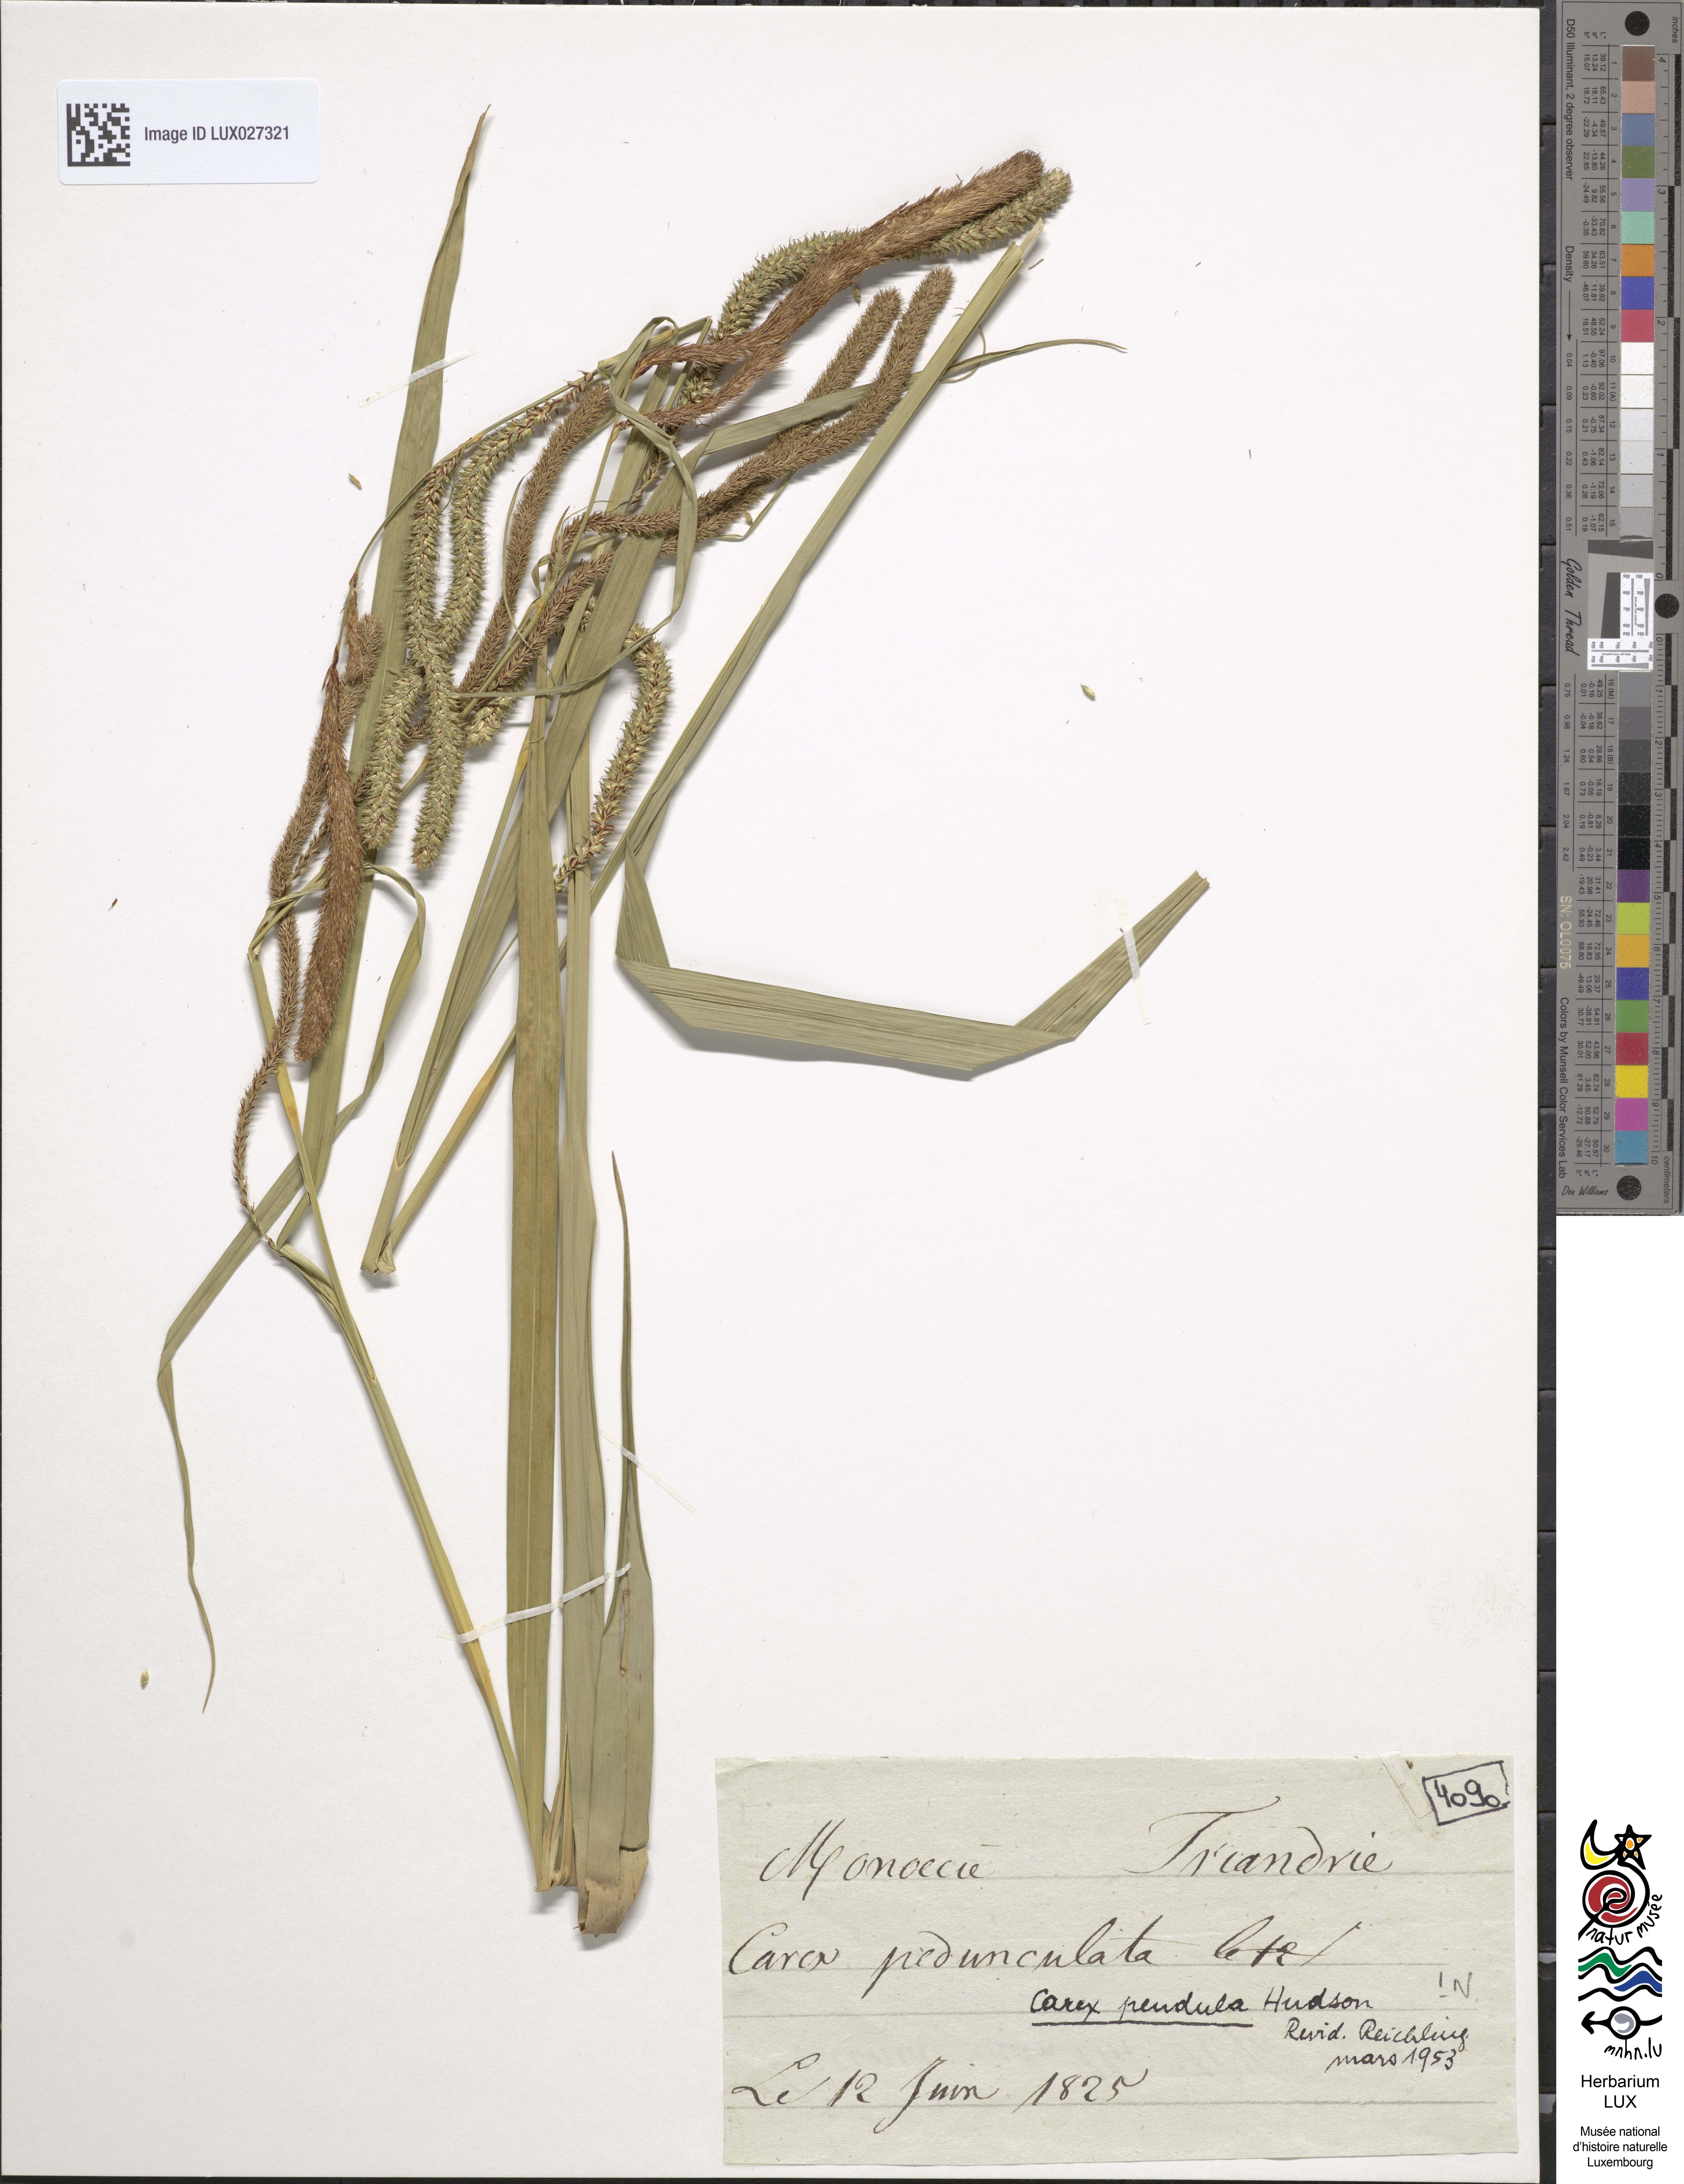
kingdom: Plantae
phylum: Tracheophyta
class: Liliopsida
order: Poales
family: Cyperaceae
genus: Carex
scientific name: Carex pendula
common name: Pendulous sedge
